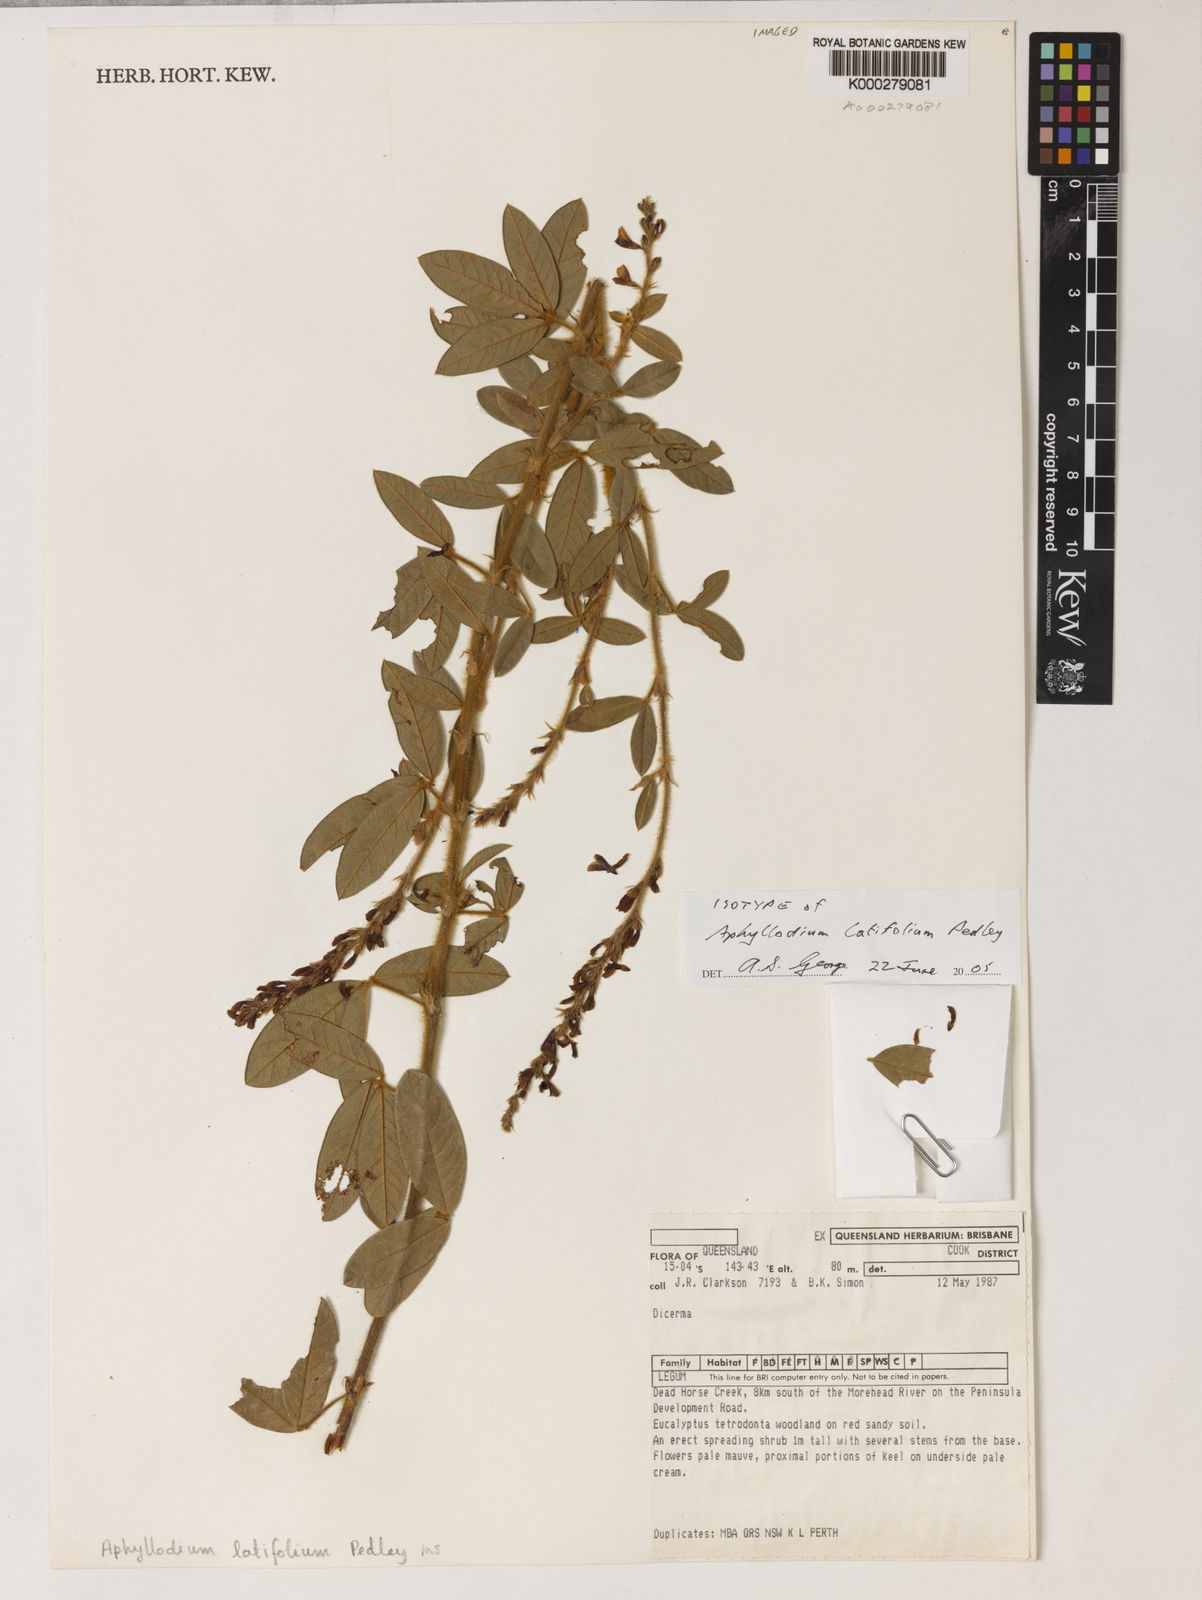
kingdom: Plantae
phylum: Tracheophyta
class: Magnoliopsida
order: Fabales
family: Fabaceae
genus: Aphyllodium
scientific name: Aphyllodium latifolium
